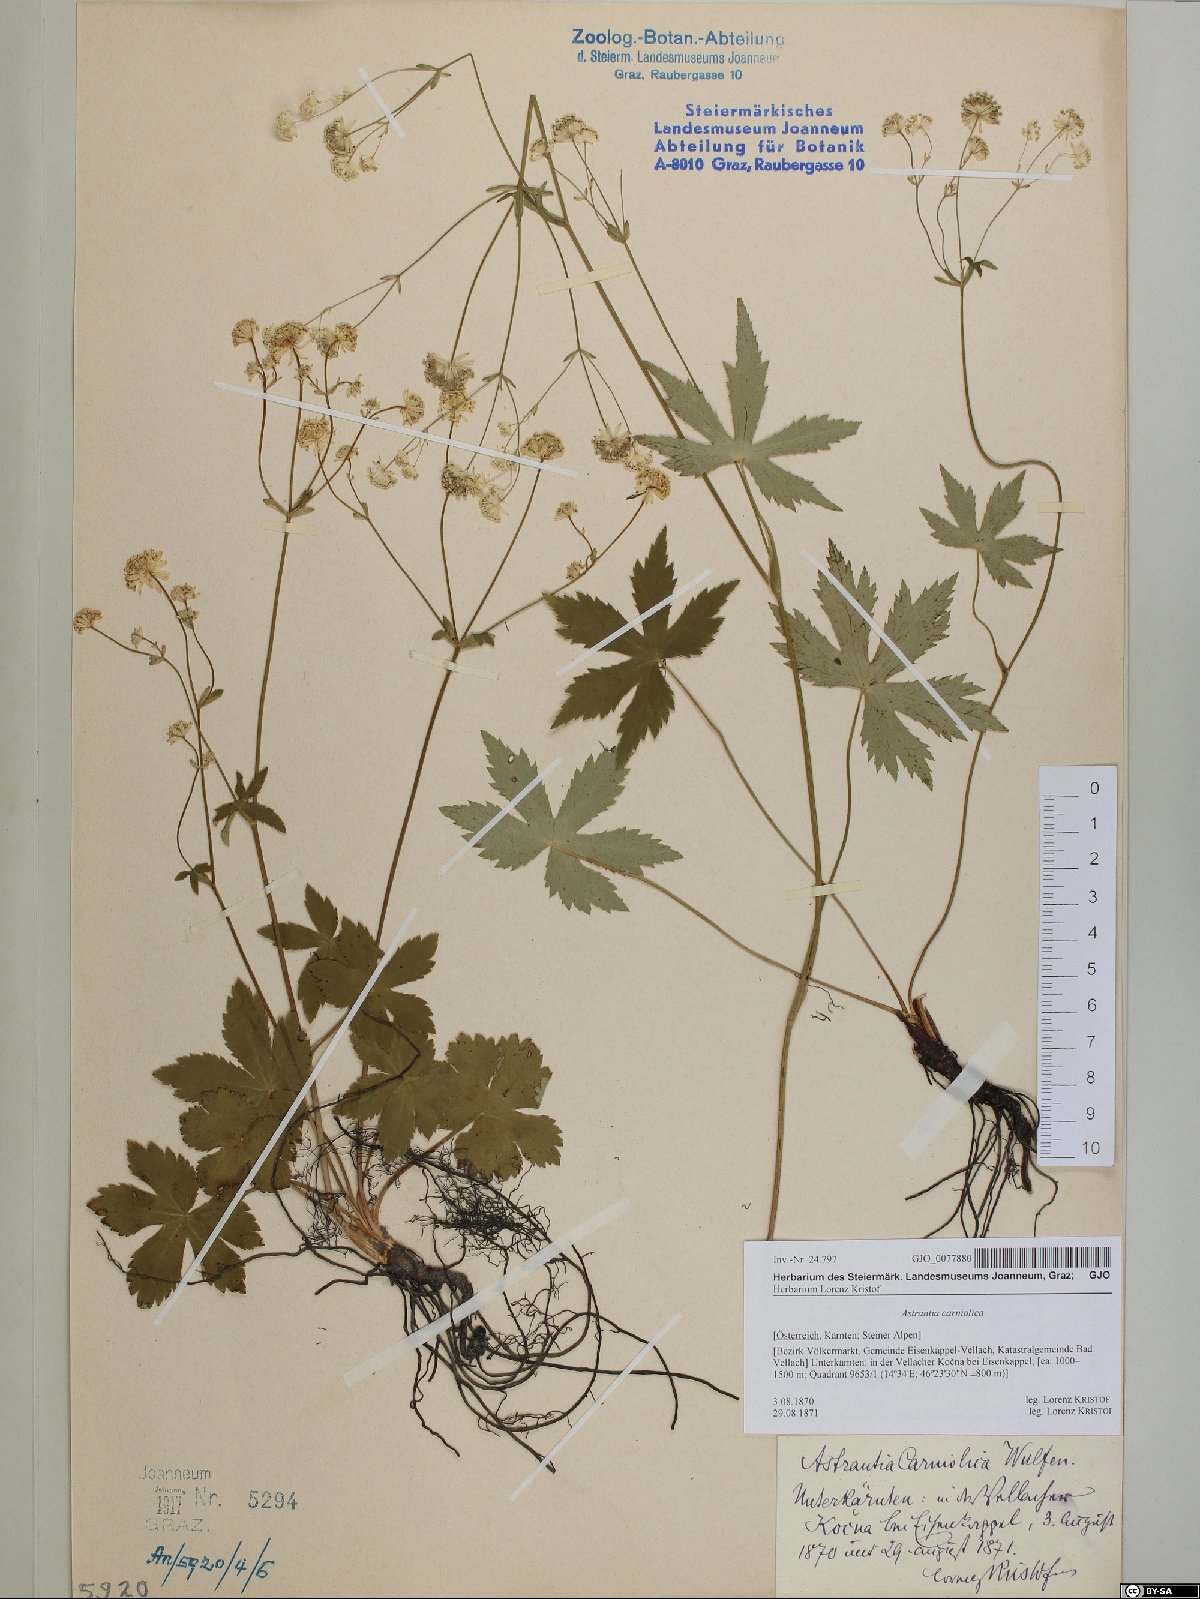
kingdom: Plantae
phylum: Tracheophyta
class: Magnoliopsida
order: Apiales
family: Apiaceae
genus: Astrantia
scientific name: Astrantia carniolica
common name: Carnic masterwort
